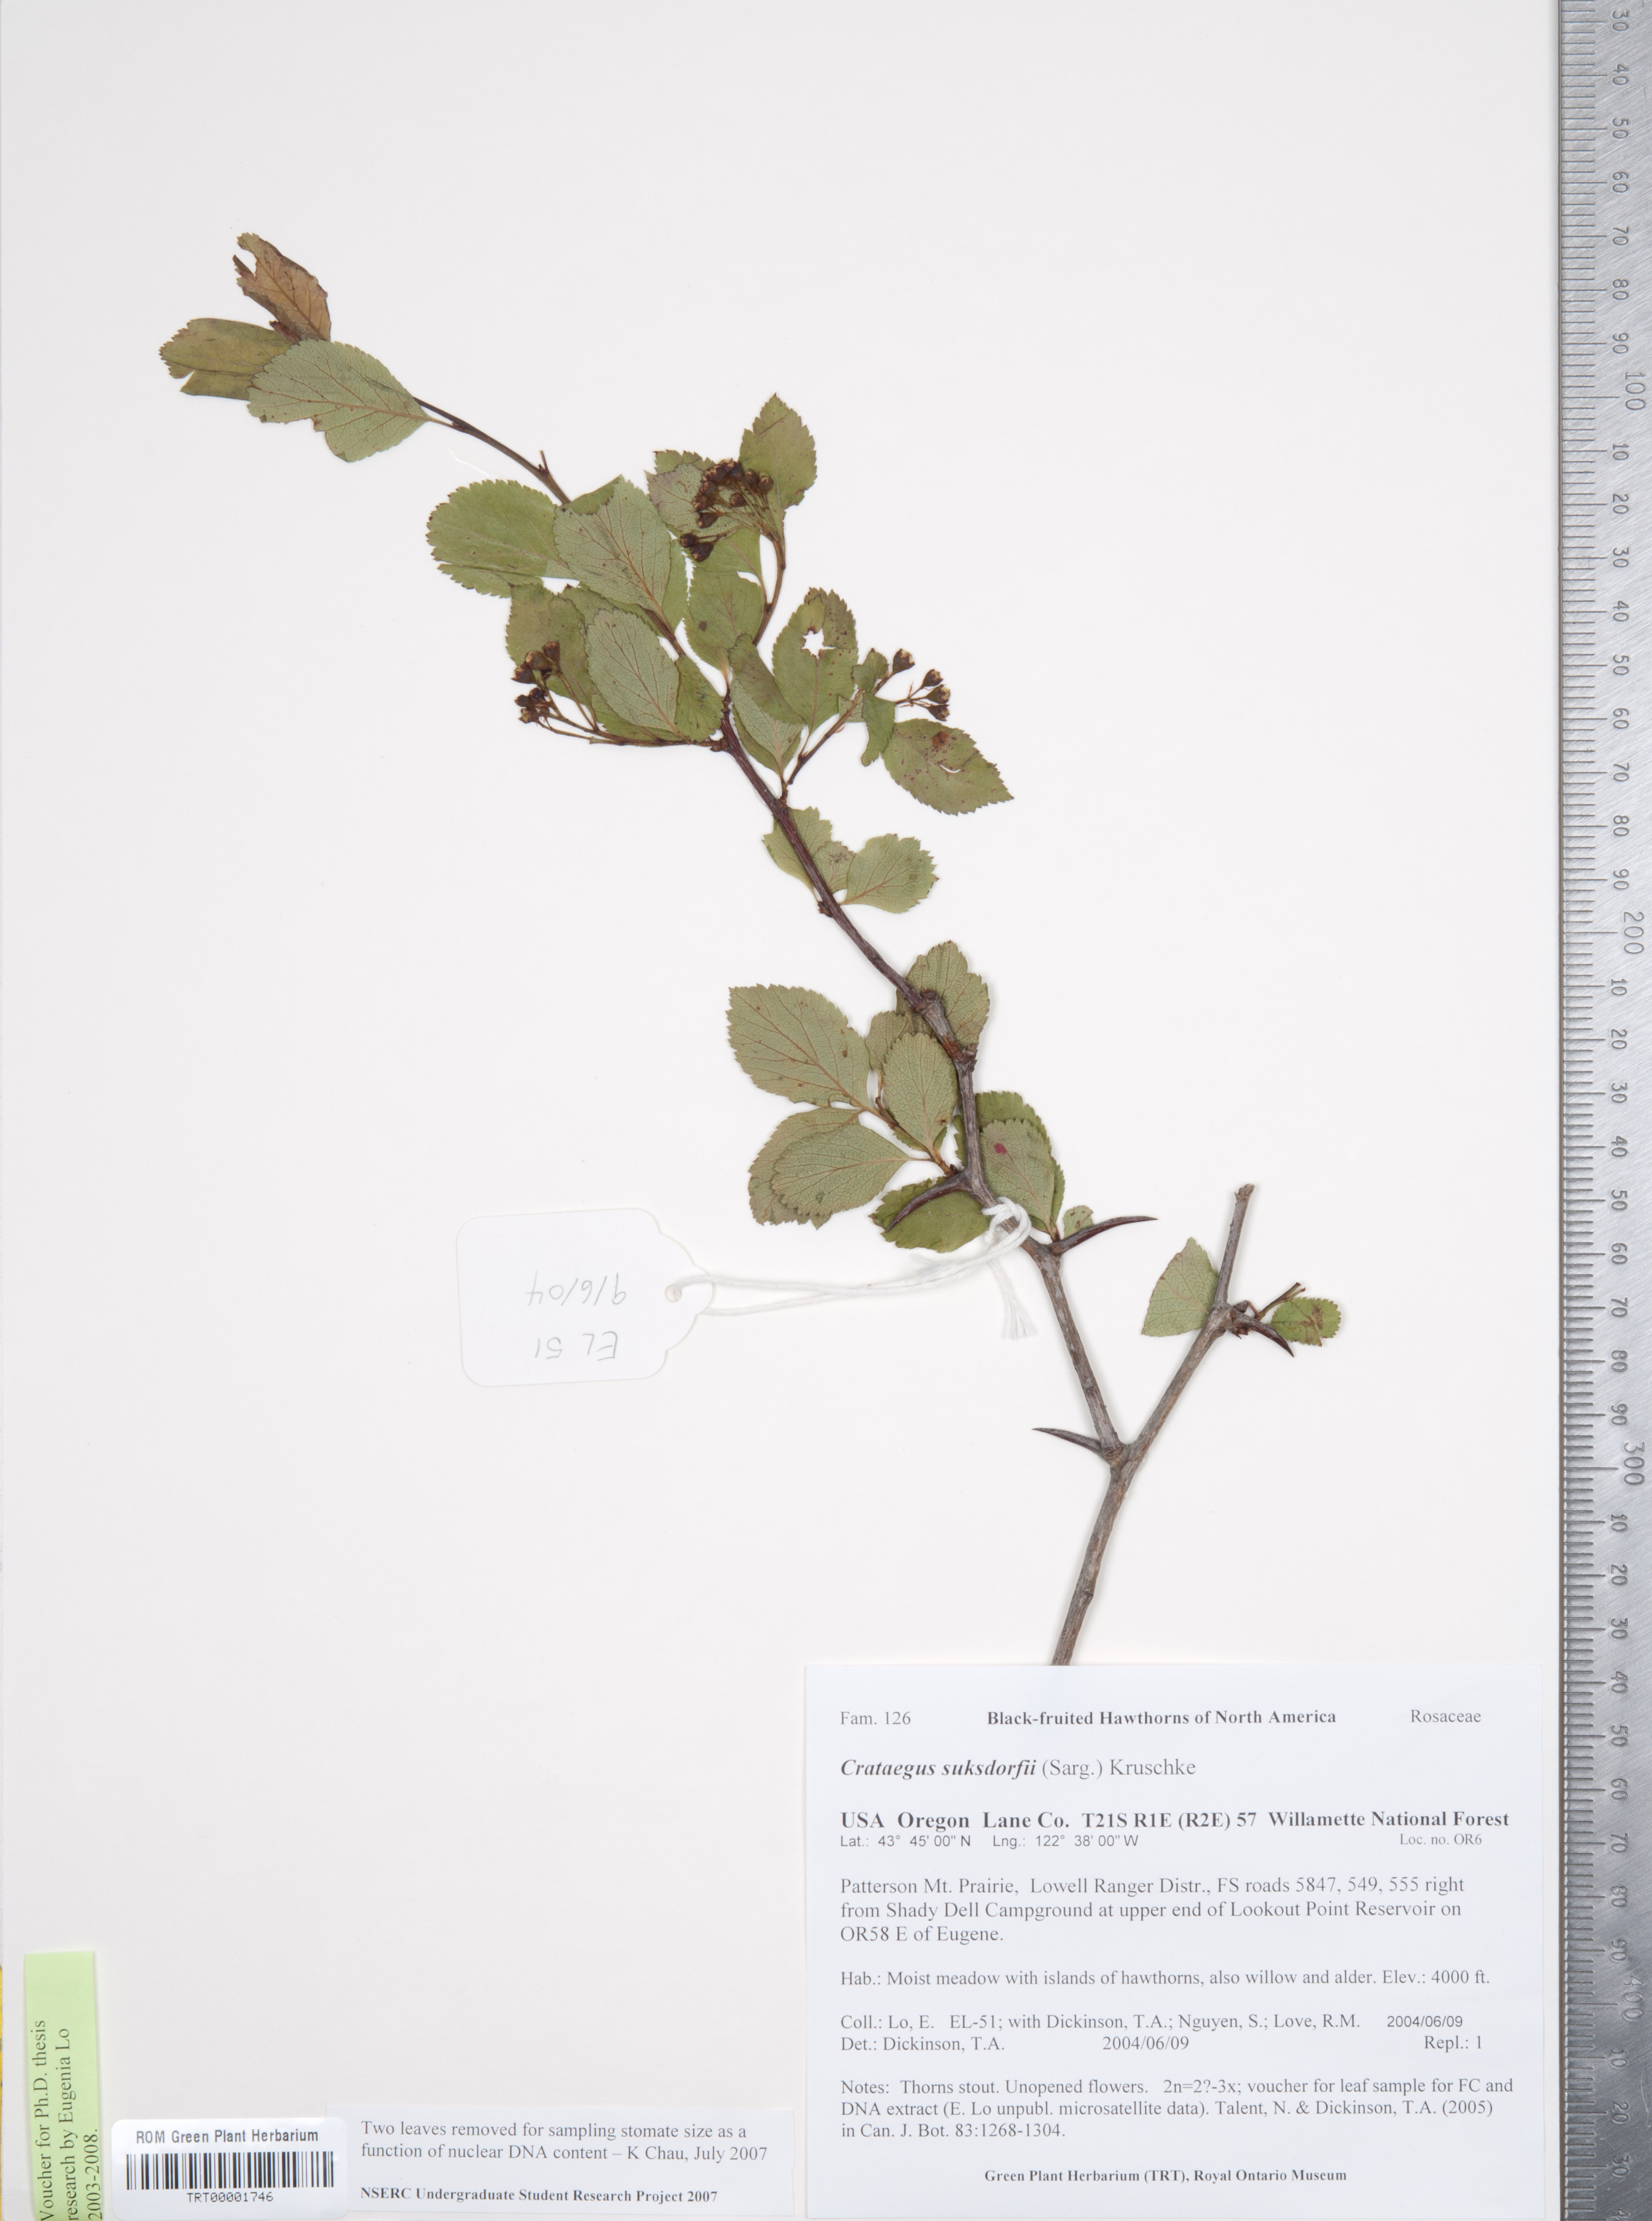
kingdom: Plantae
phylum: Tracheophyta
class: Magnoliopsida
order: Rosales
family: Rosaceae
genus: Crataegus
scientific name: Crataegus gaylussacia
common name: Huckleberry hawthorn
